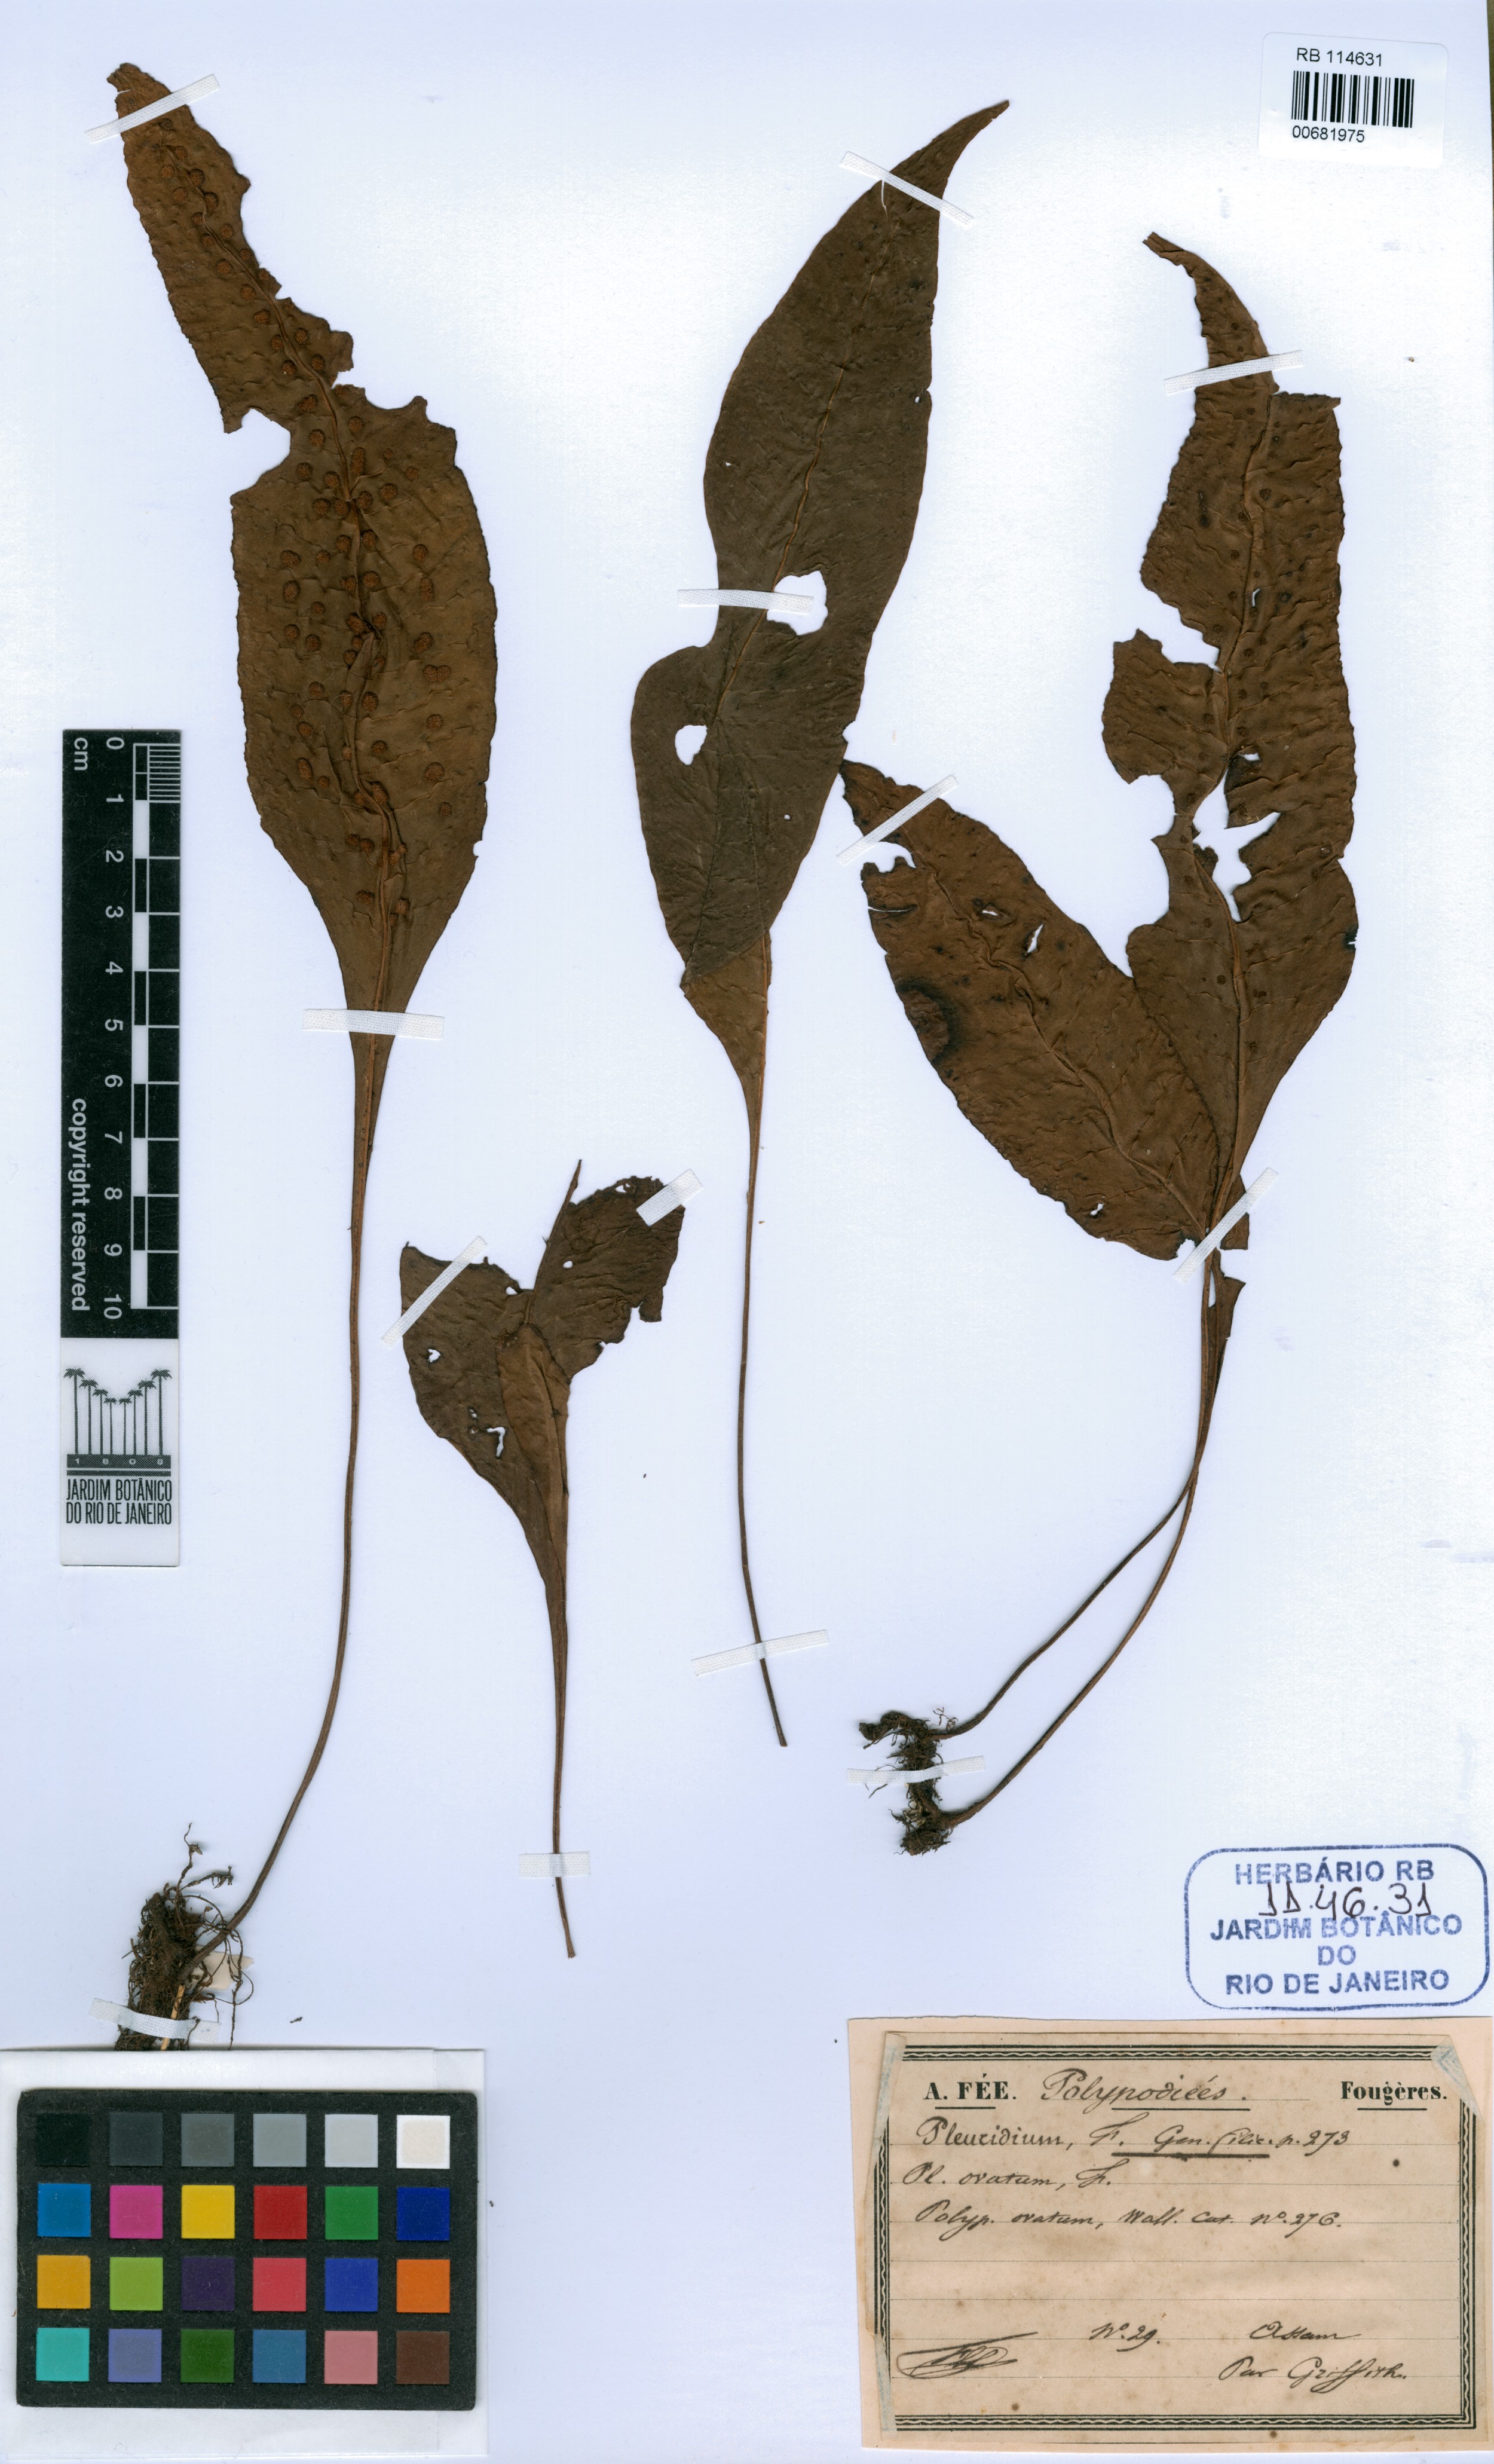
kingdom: Plantae
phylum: Bryophyta
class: Bryopsida
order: Dicranales
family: Ditrichaceae
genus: Pleuridium
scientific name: Pleuridium
